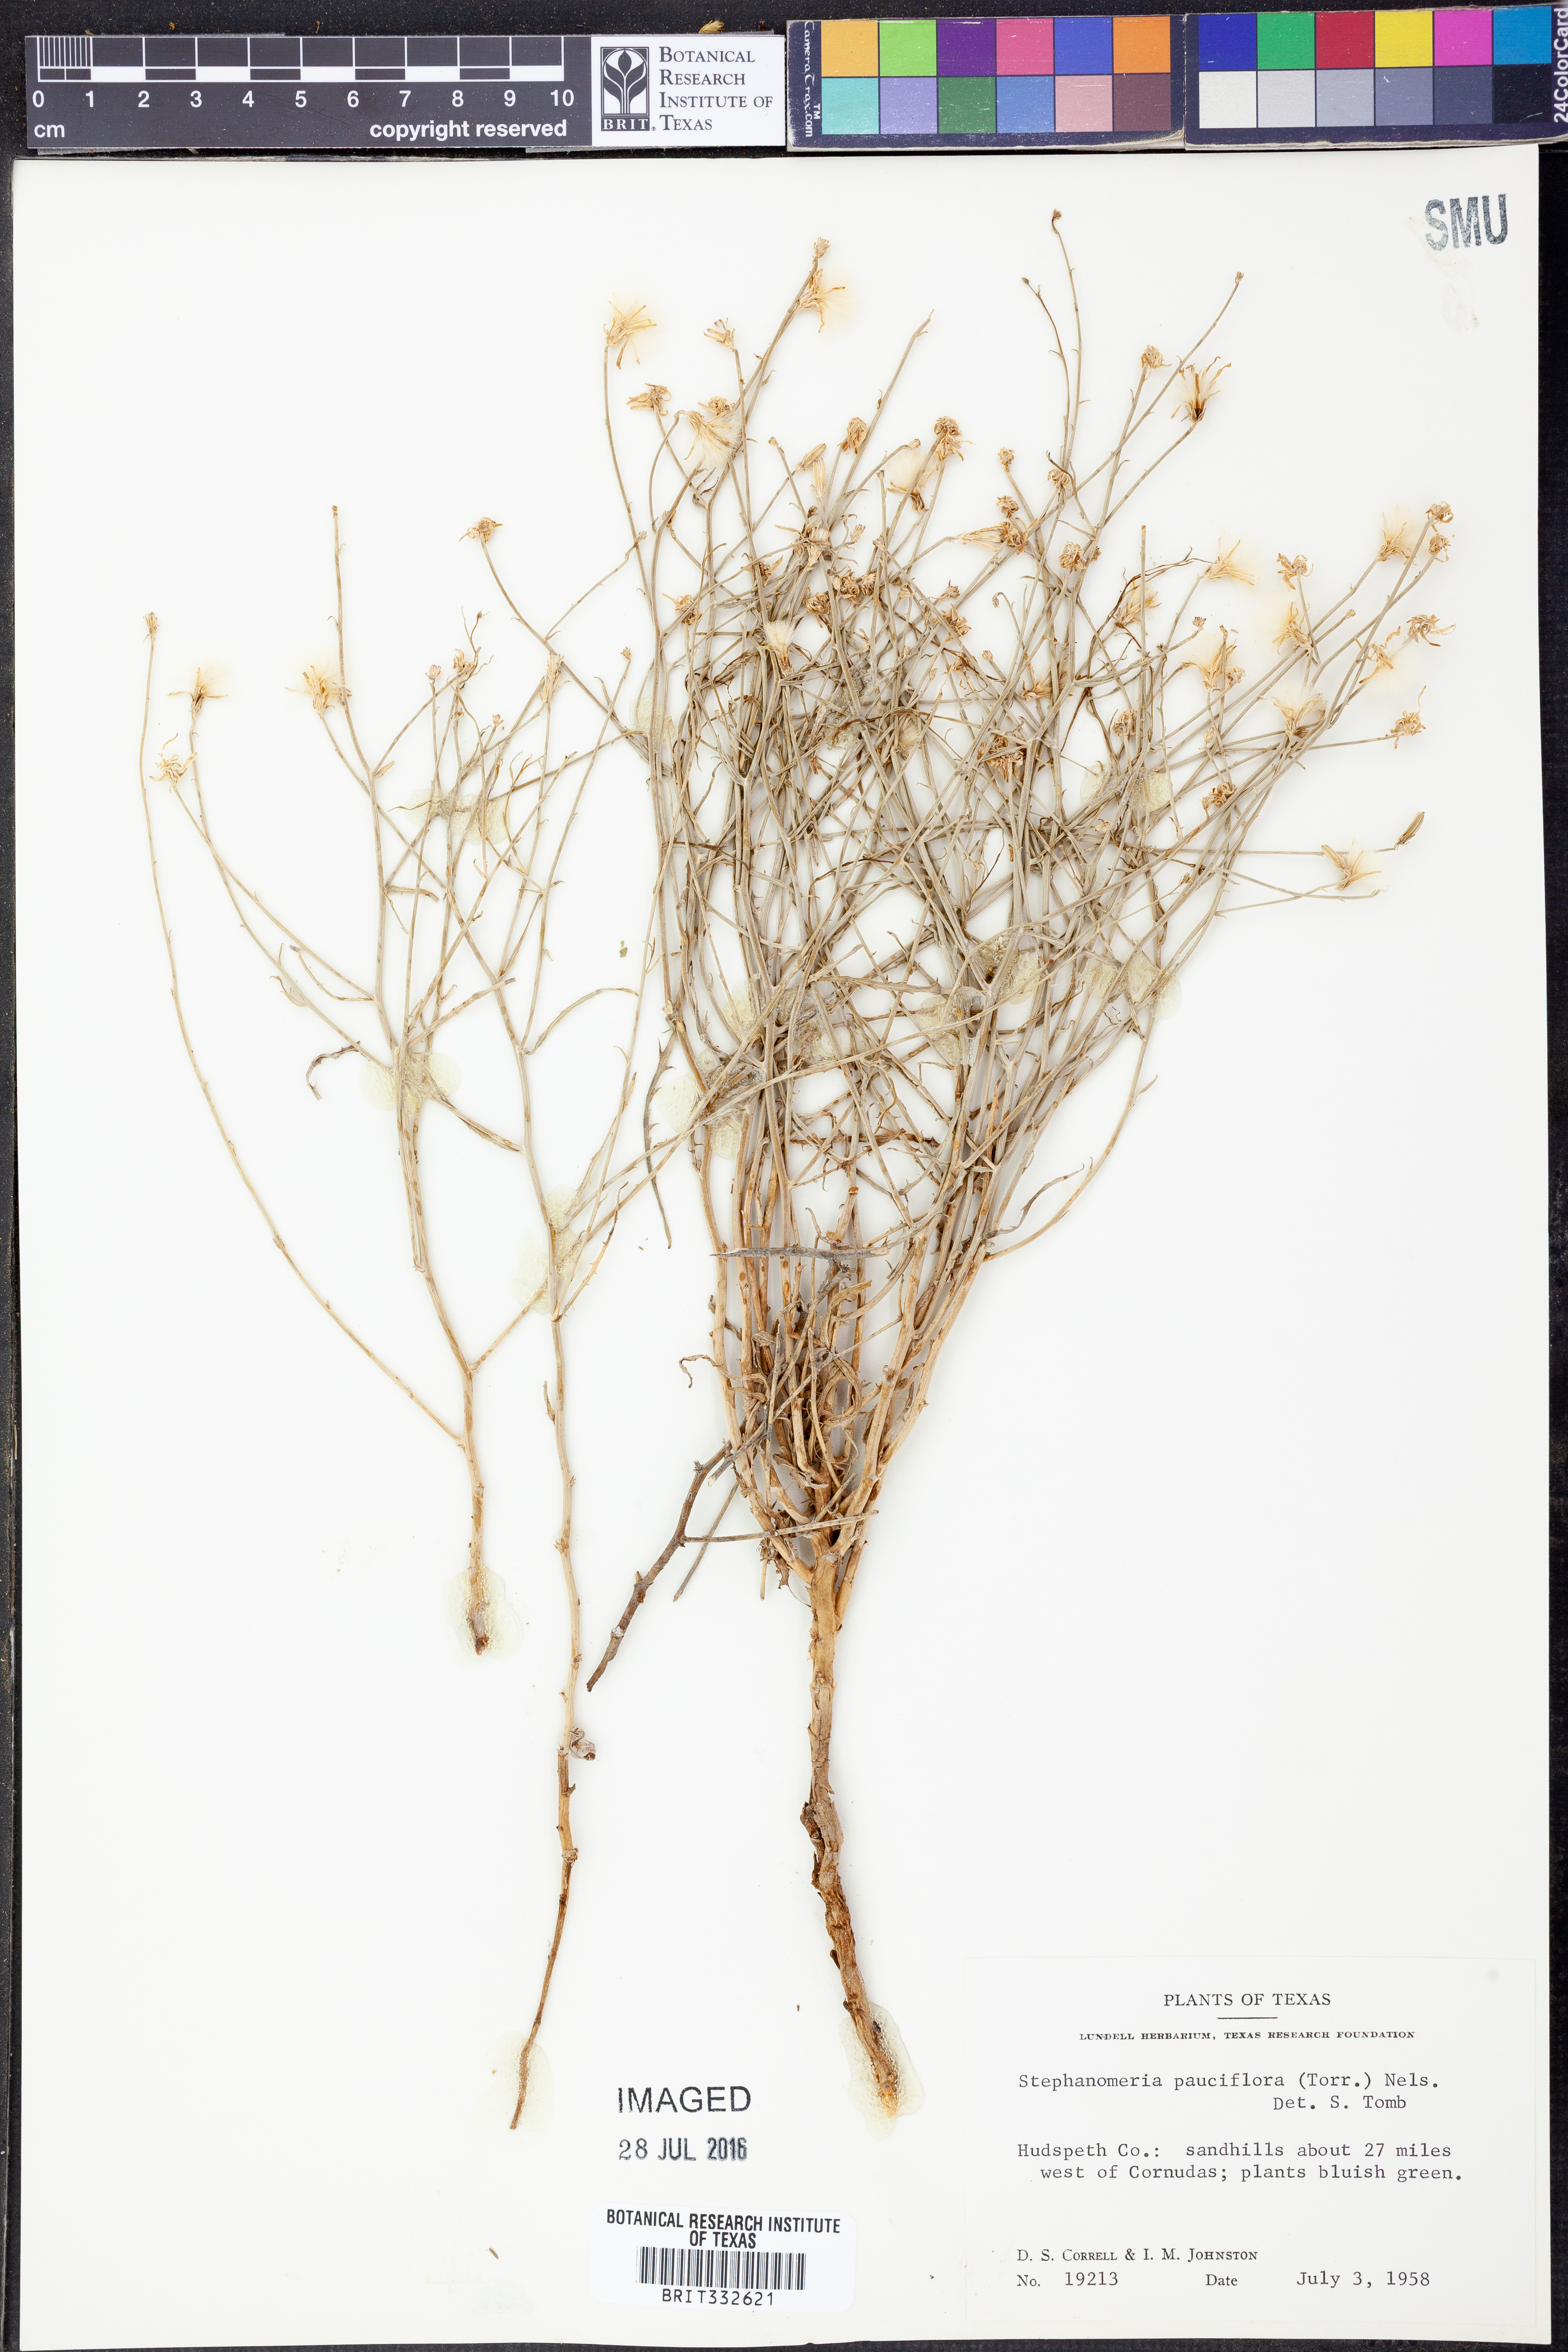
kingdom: Plantae
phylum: Tracheophyta
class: Magnoliopsida
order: Asterales
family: Asteraceae
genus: Stephanomeria
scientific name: Stephanomeria pauciflora
